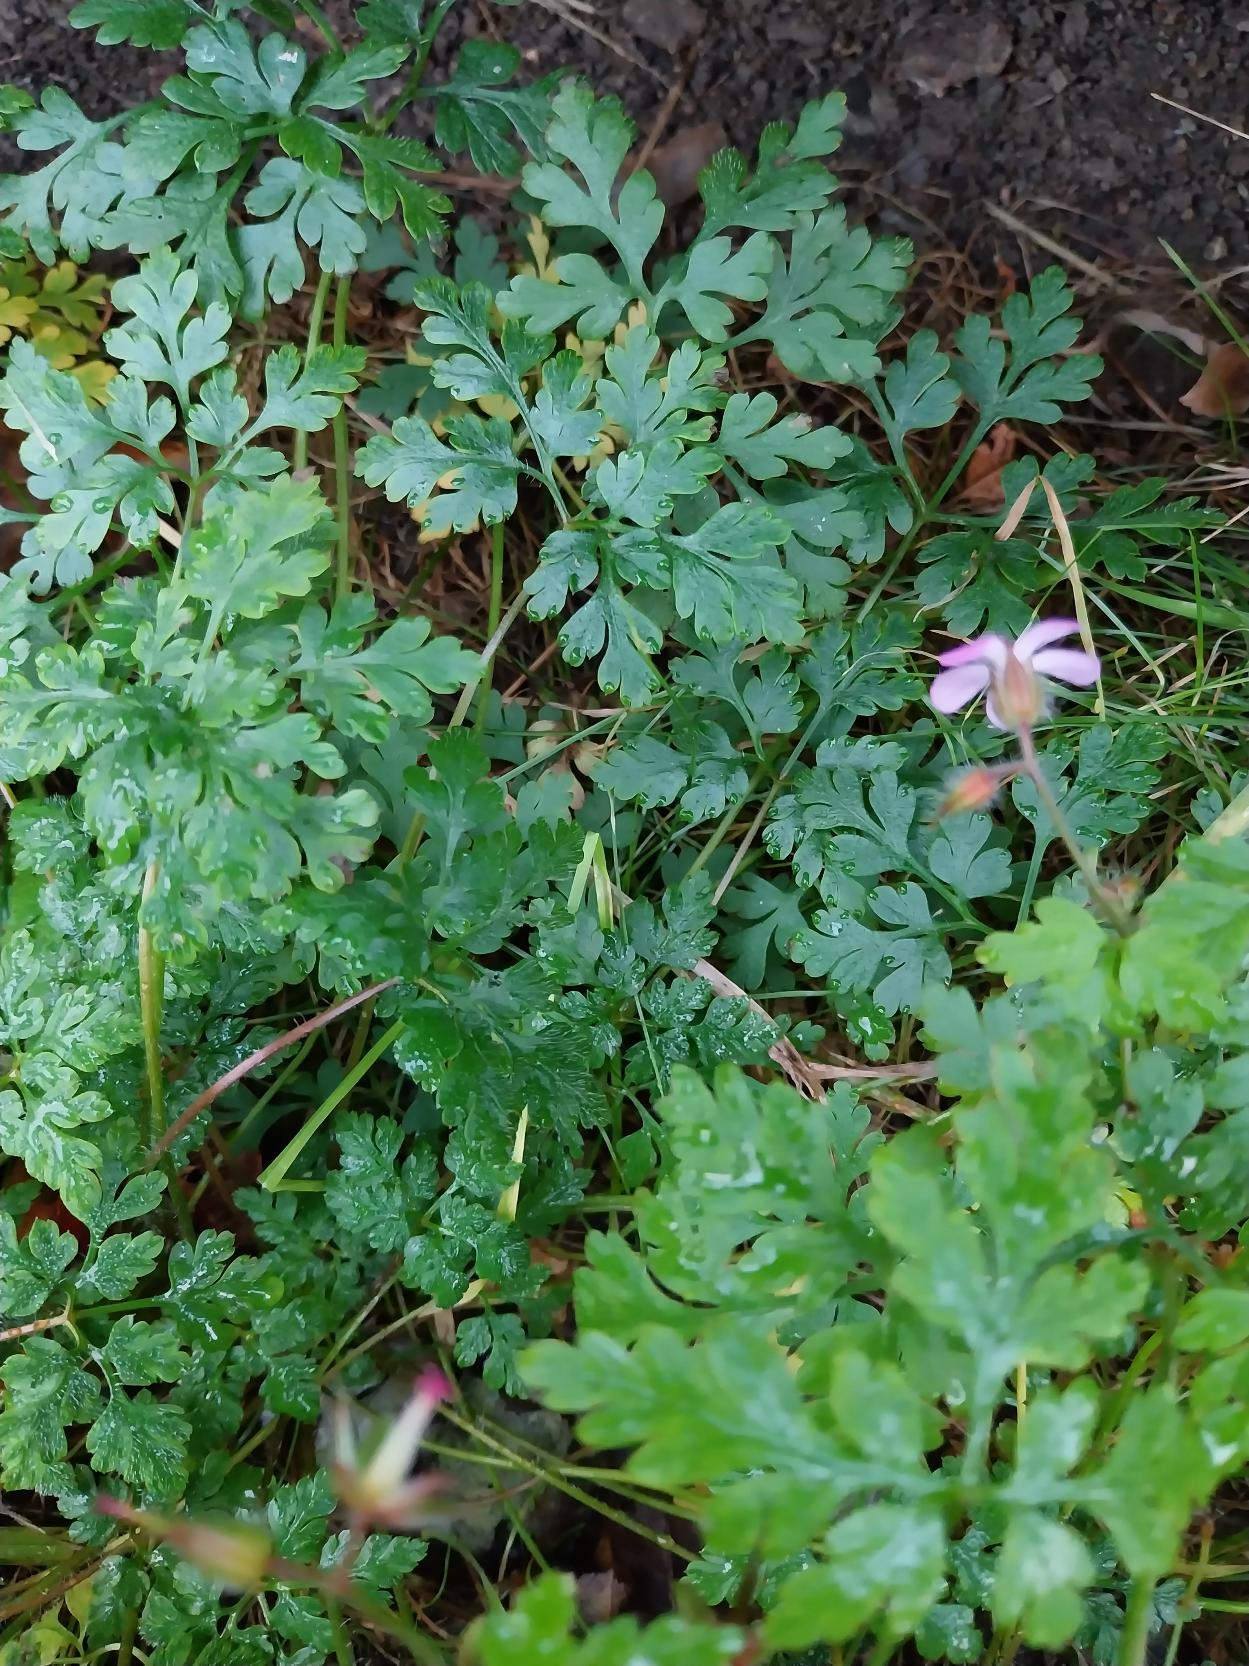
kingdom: Plantae
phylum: Tracheophyta
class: Magnoliopsida
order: Geraniales
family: Geraniaceae
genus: Geranium
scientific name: Geranium robertianum
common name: Stinkende storkenæb
